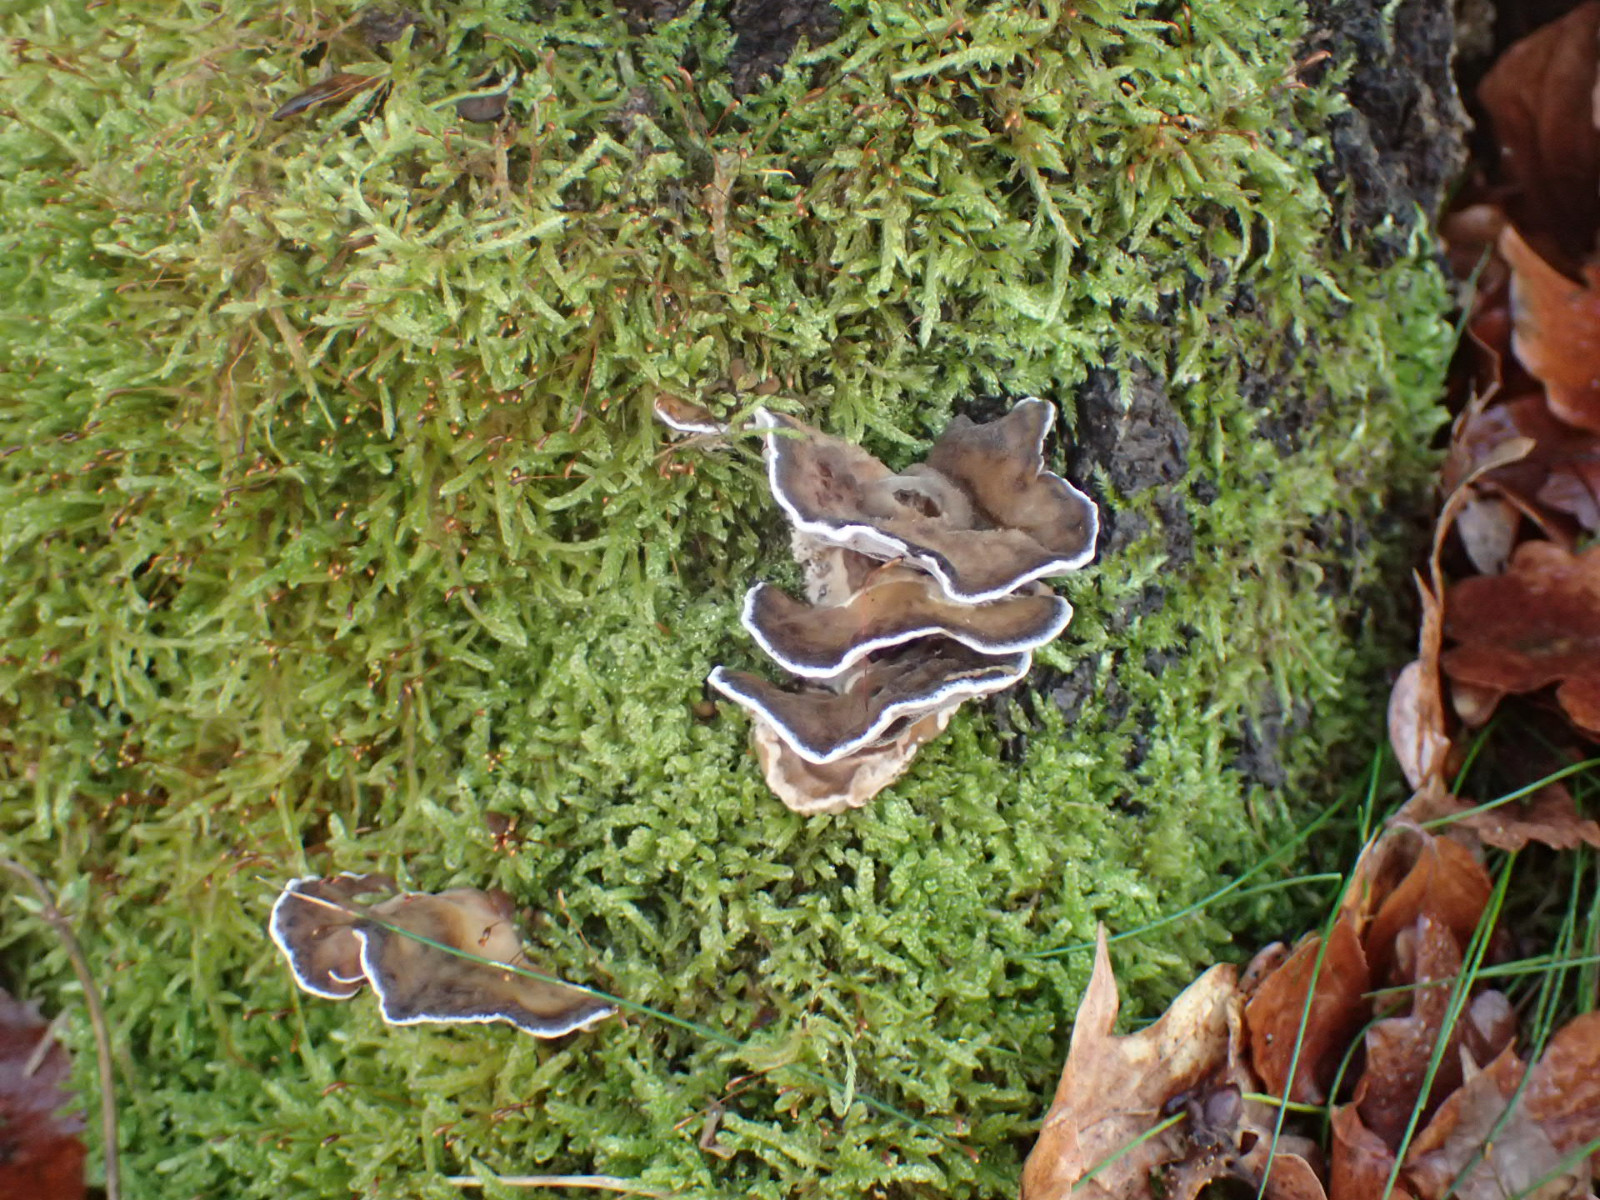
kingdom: Fungi
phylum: Basidiomycota
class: Agaricomycetes
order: Polyporales
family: Phanerochaetaceae
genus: Bjerkandera
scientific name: Bjerkandera adusta
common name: sveden sodporesvamp
